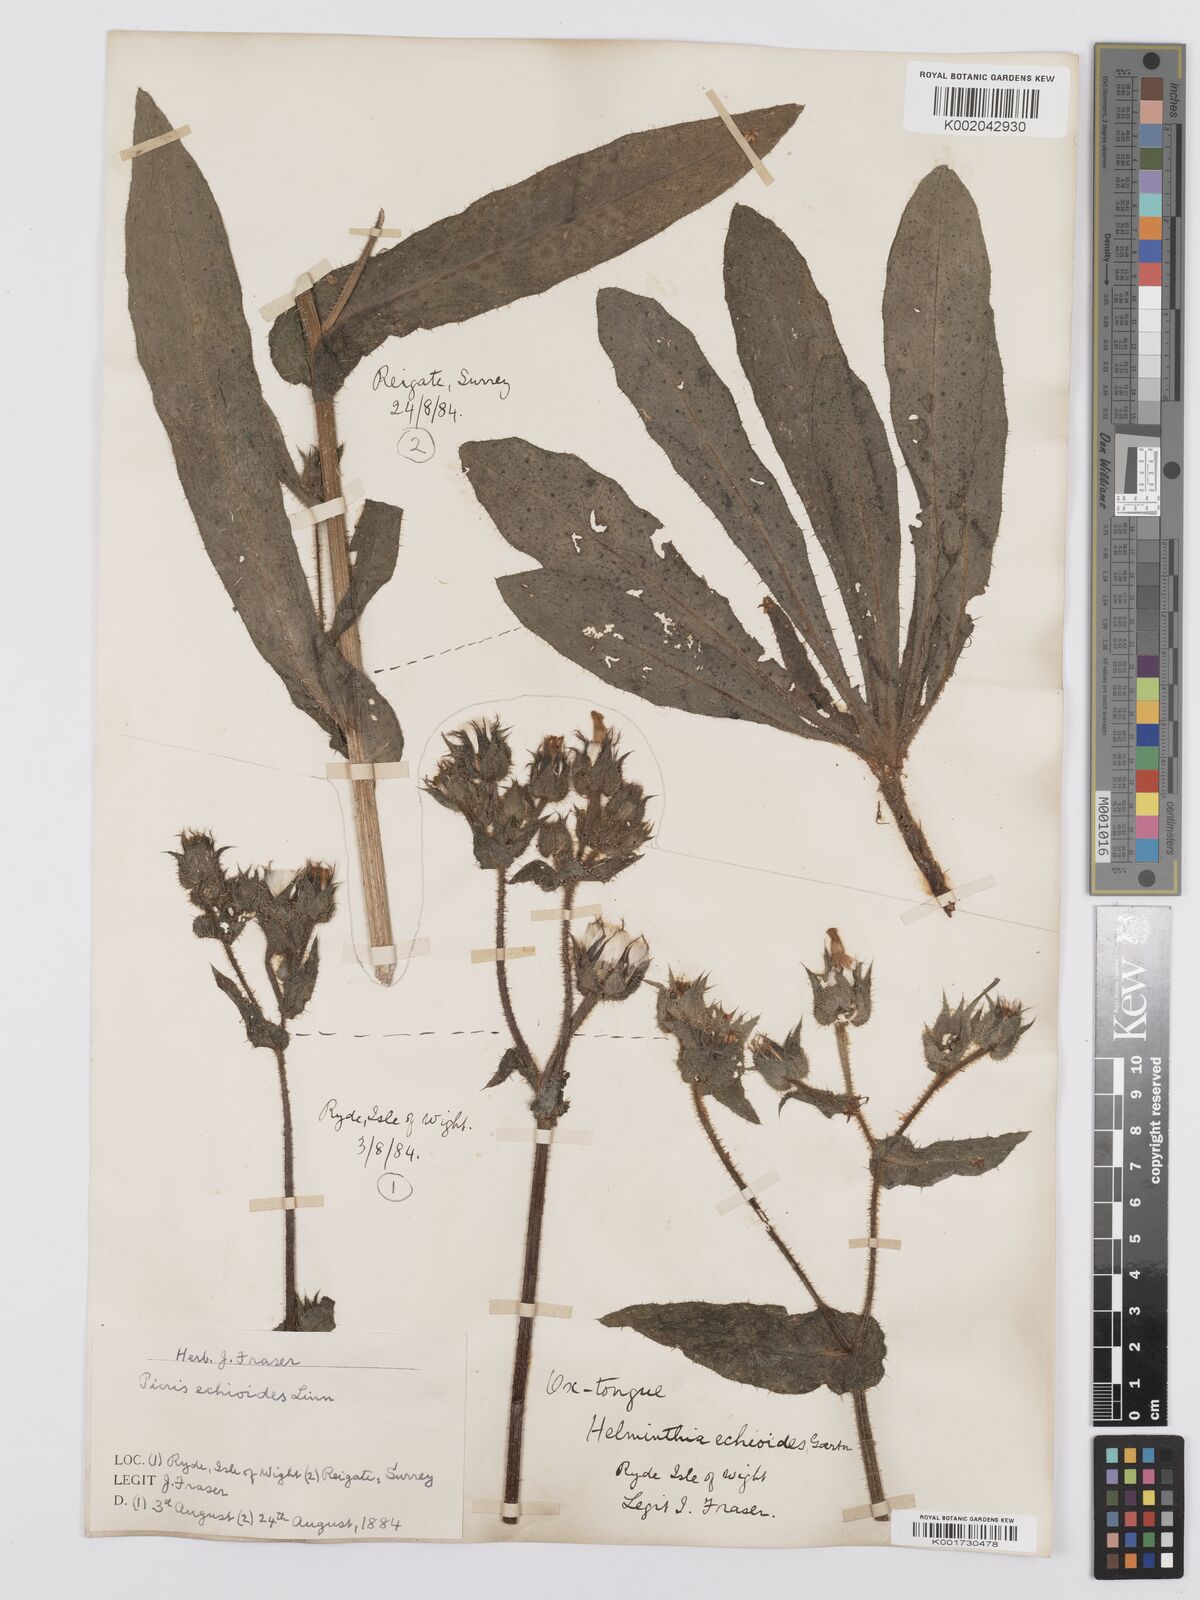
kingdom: Plantae
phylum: Tracheophyta
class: Magnoliopsida
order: Asterales
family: Asteraceae
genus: Helminthotheca
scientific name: Helminthotheca echioides
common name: Ox-tongue
